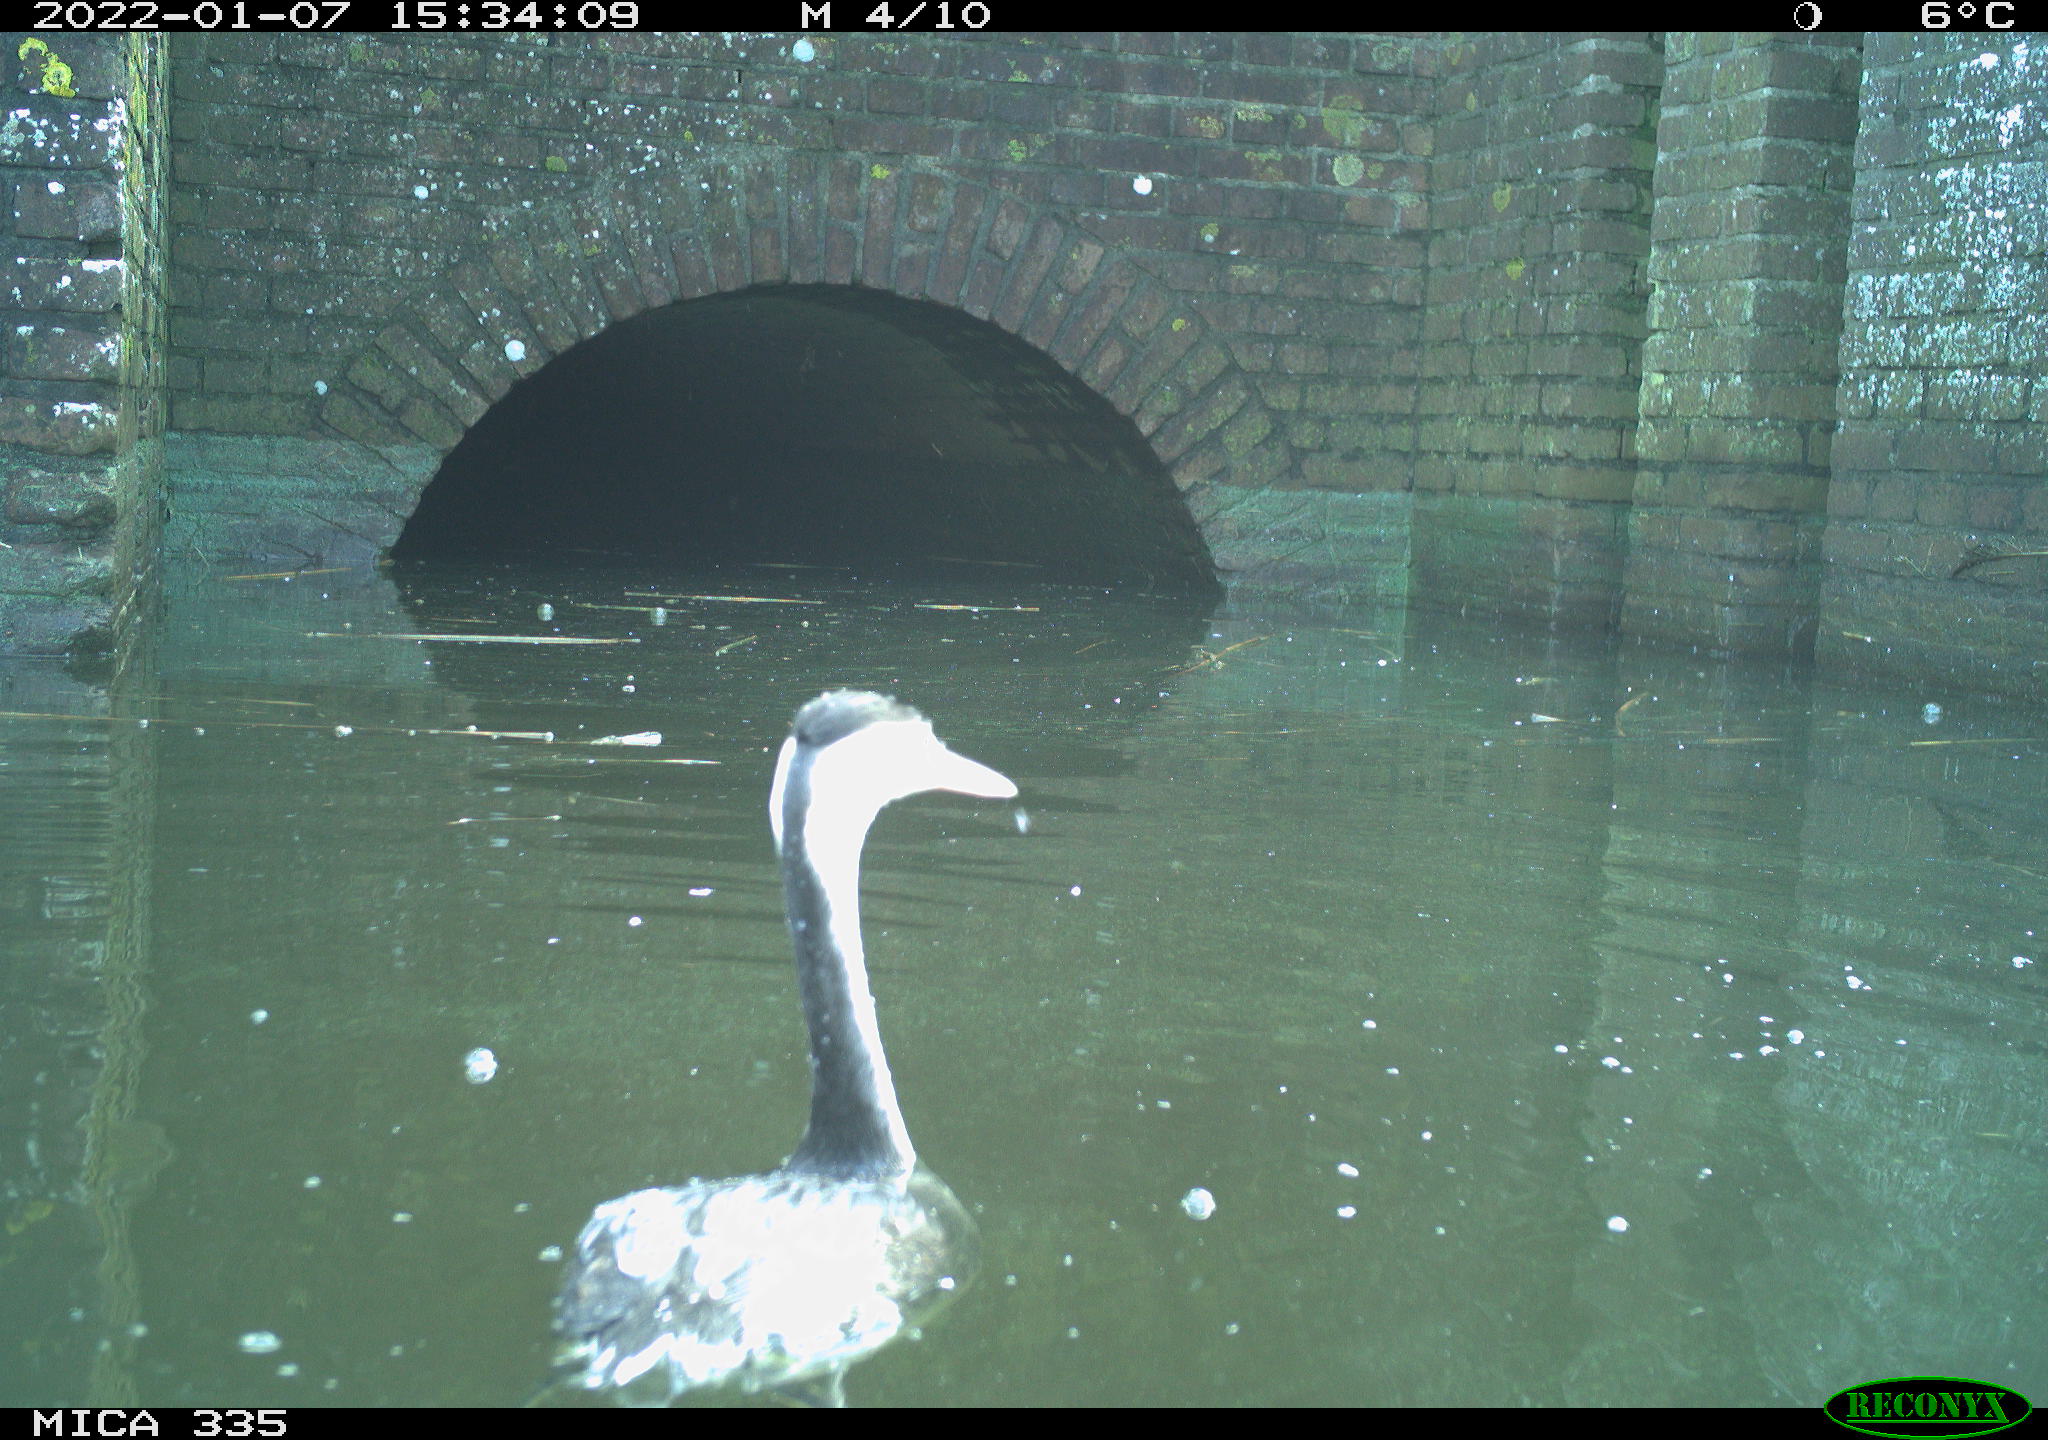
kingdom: Animalia
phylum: Chordata
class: Aves
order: Podicipediformes
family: Podicipedidae
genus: Podiceps
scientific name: Podiceps cristatus
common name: Great crested grebe
